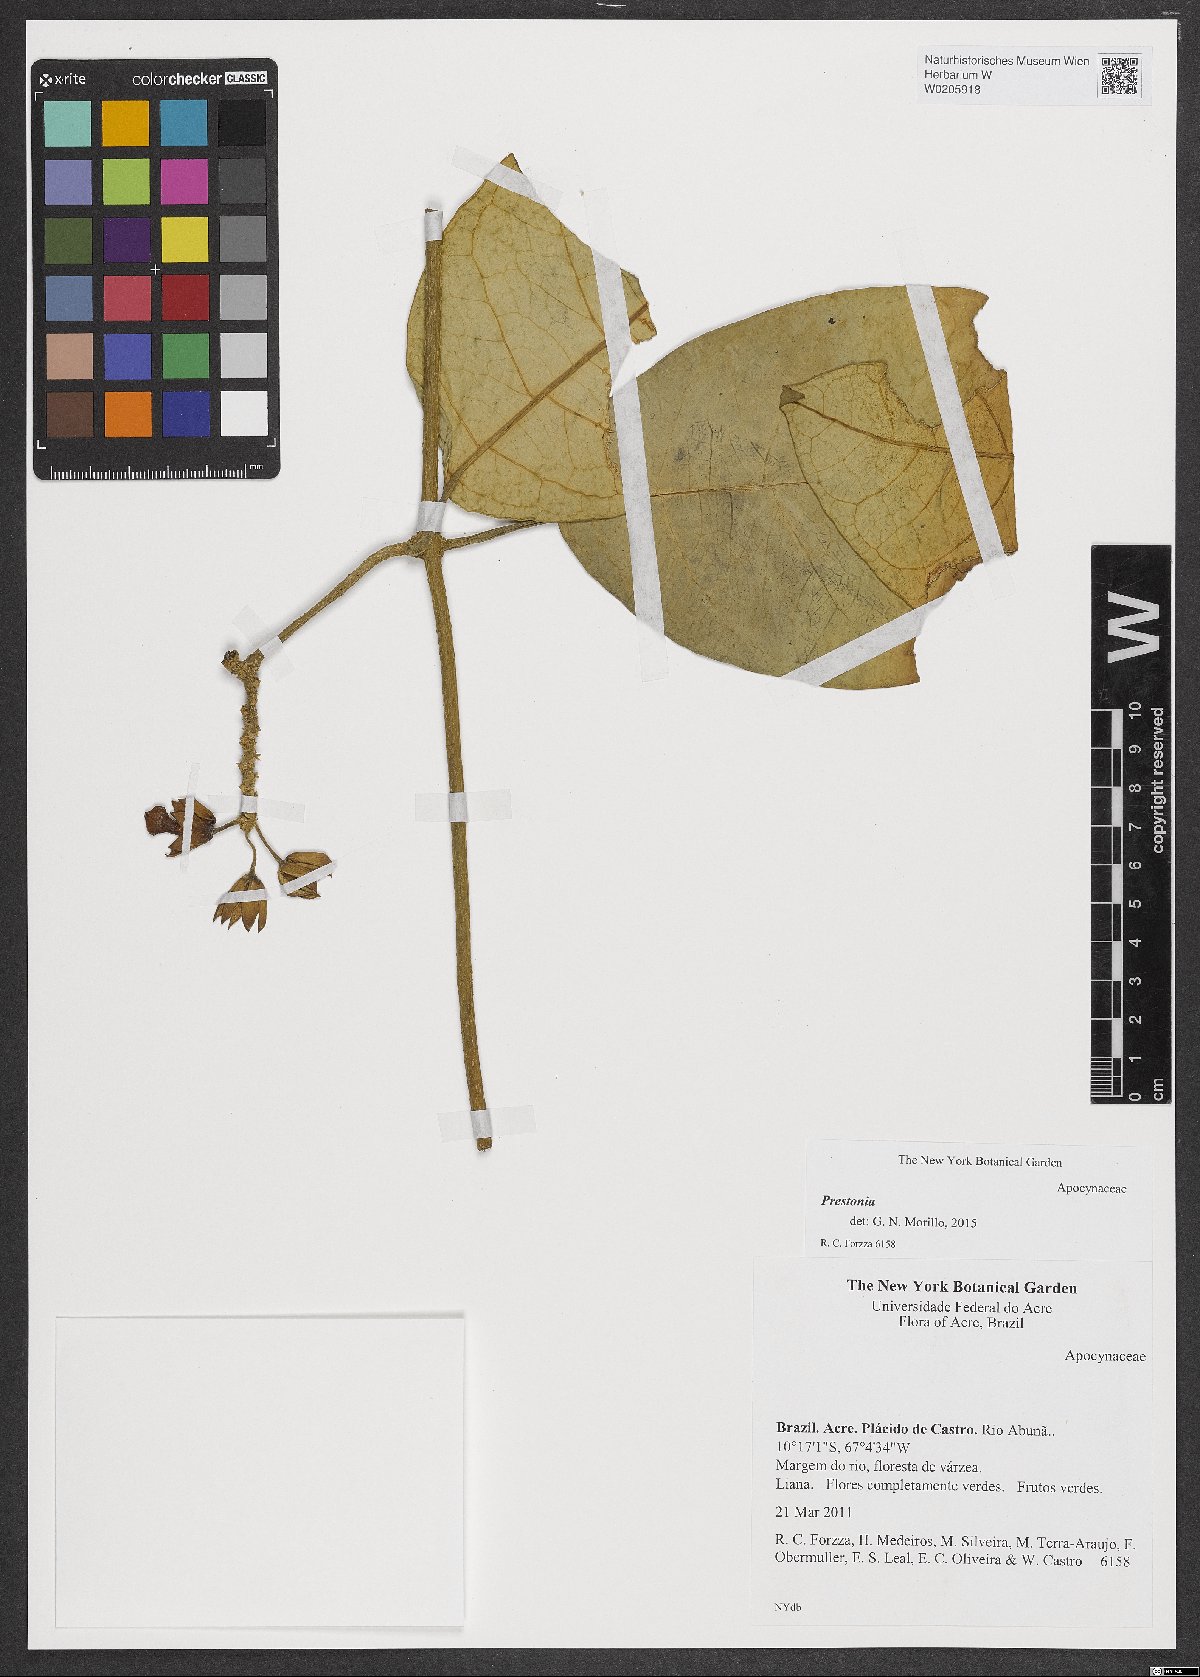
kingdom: Plantae
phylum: Tracheophyta
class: Magnoliopsida
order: Gentianales
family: Apocynaceae
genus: Prestonia
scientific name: Prestonia
